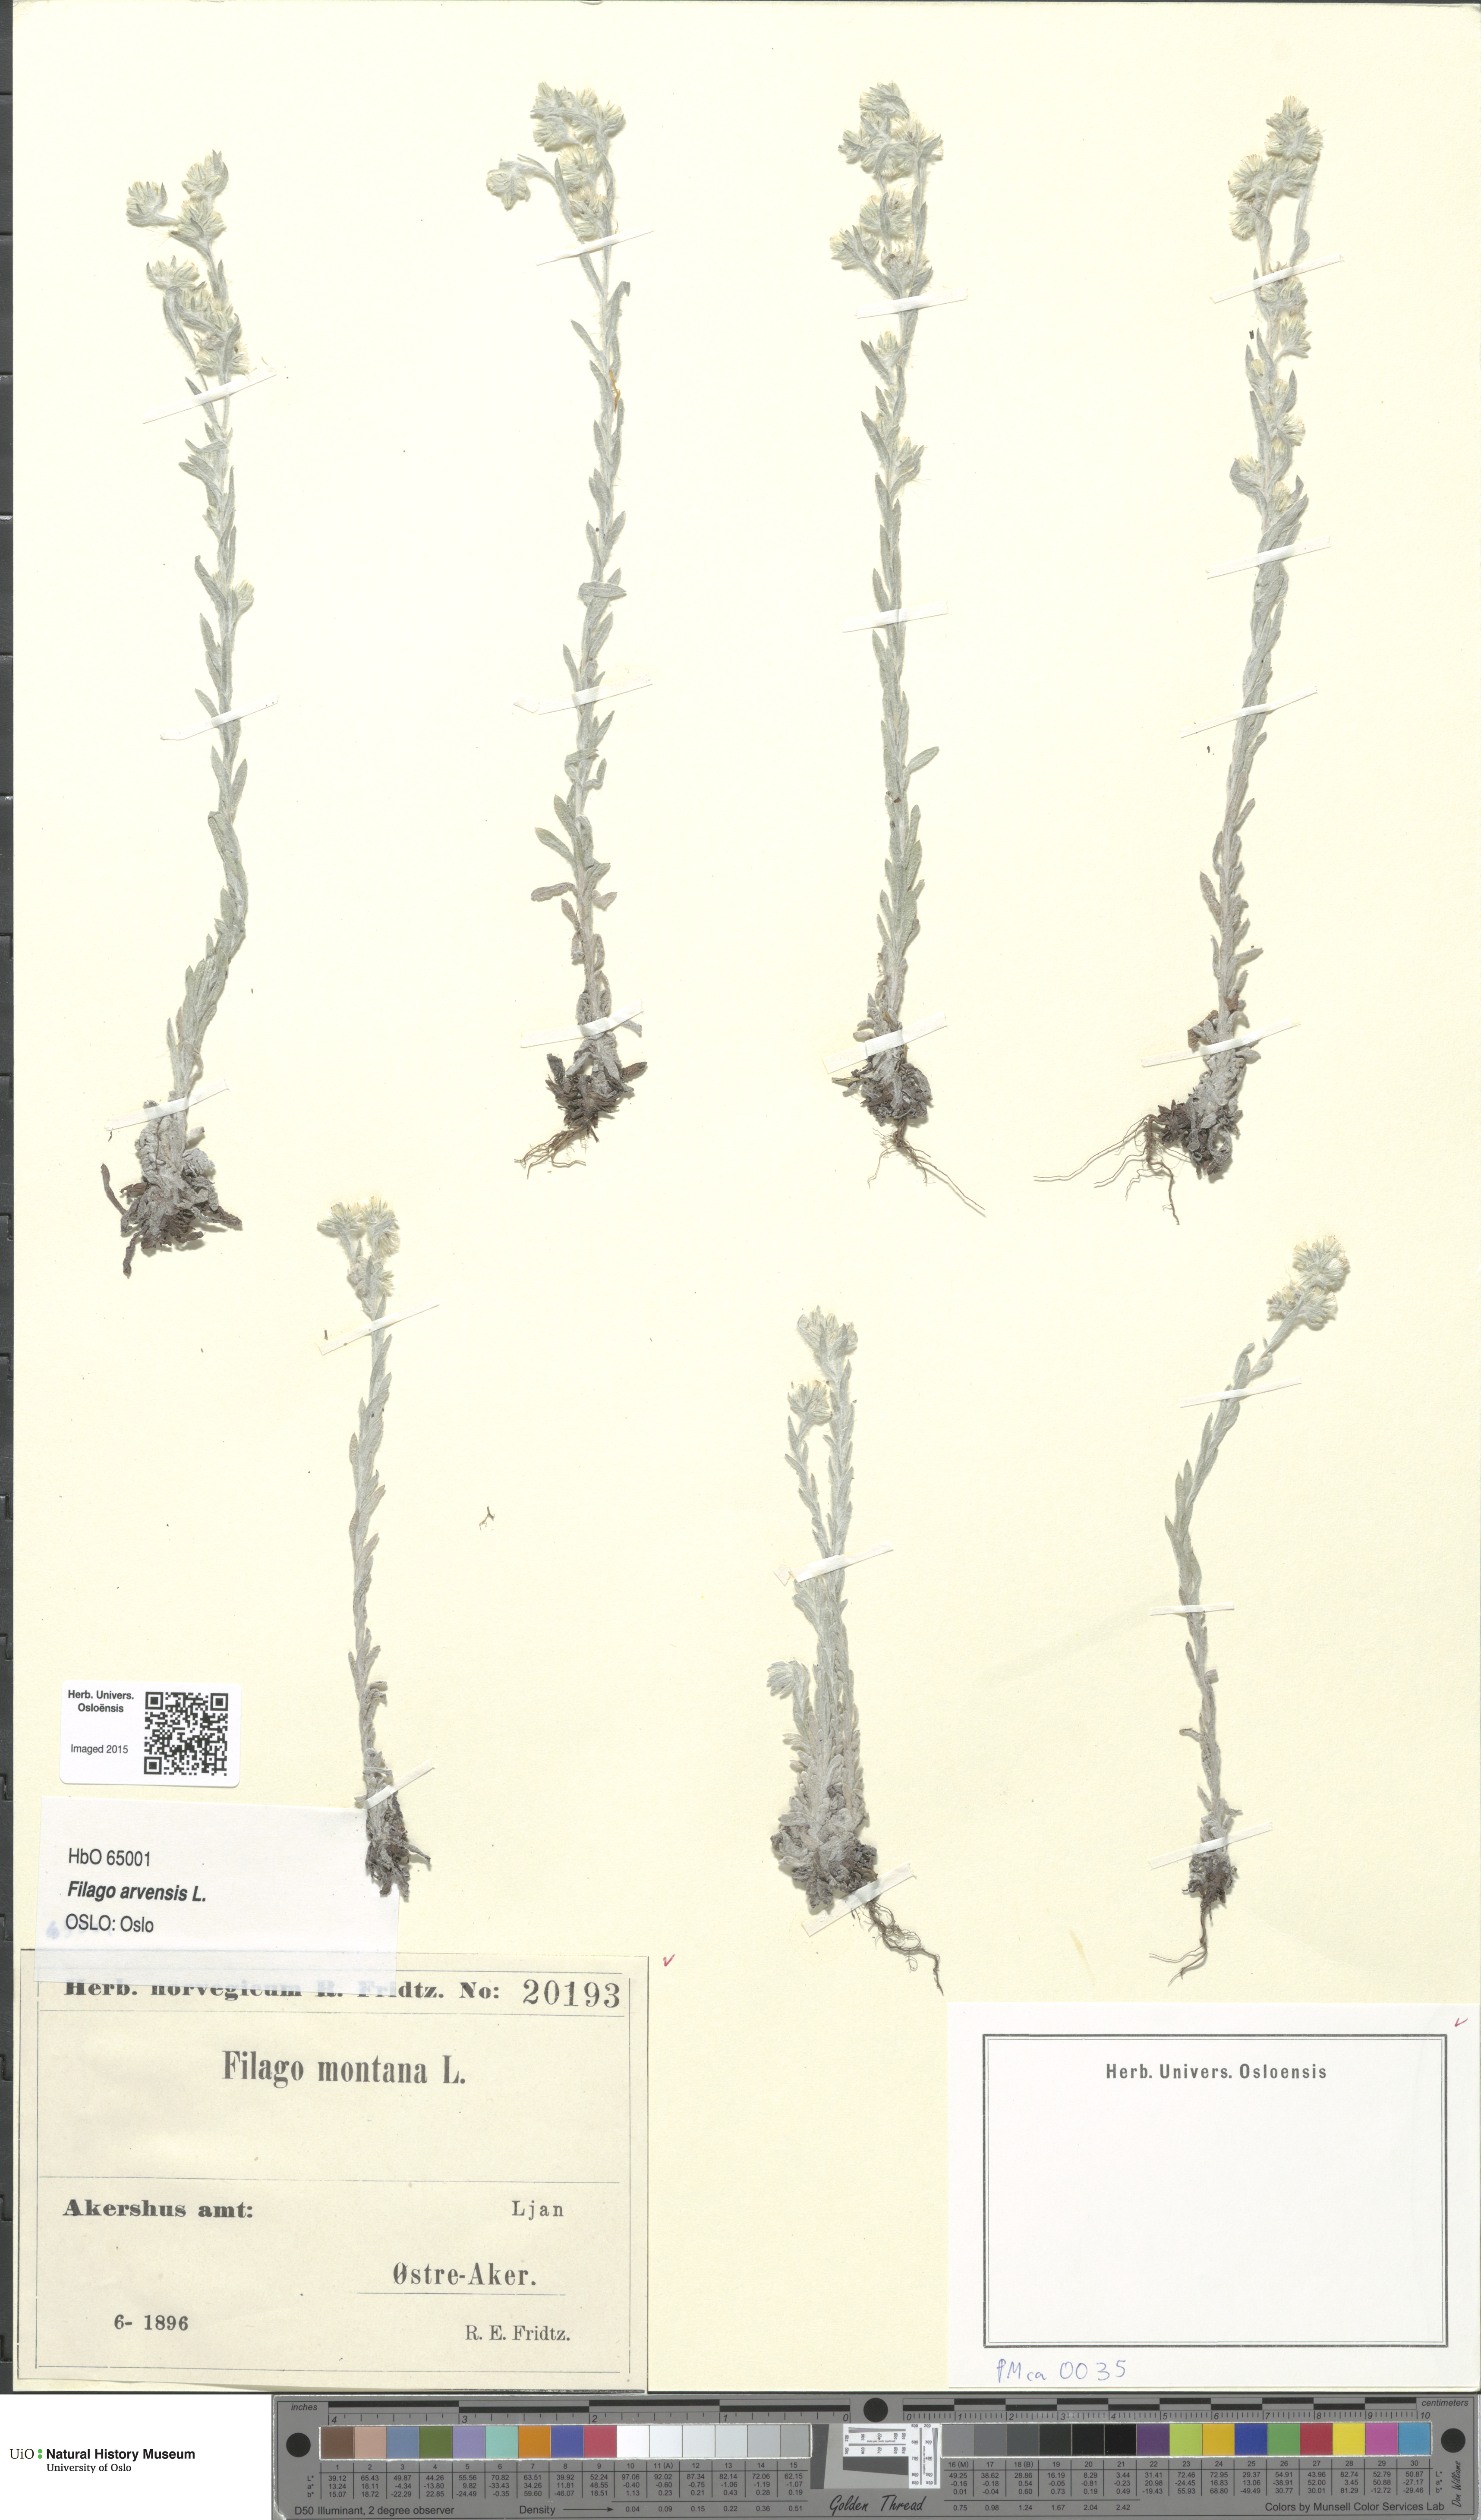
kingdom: Plantae
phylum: Tracheophyta
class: Magnoliopsida
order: Asterales
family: Asteraceae
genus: Filago
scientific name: Filago arvensis
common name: Field cudweed
